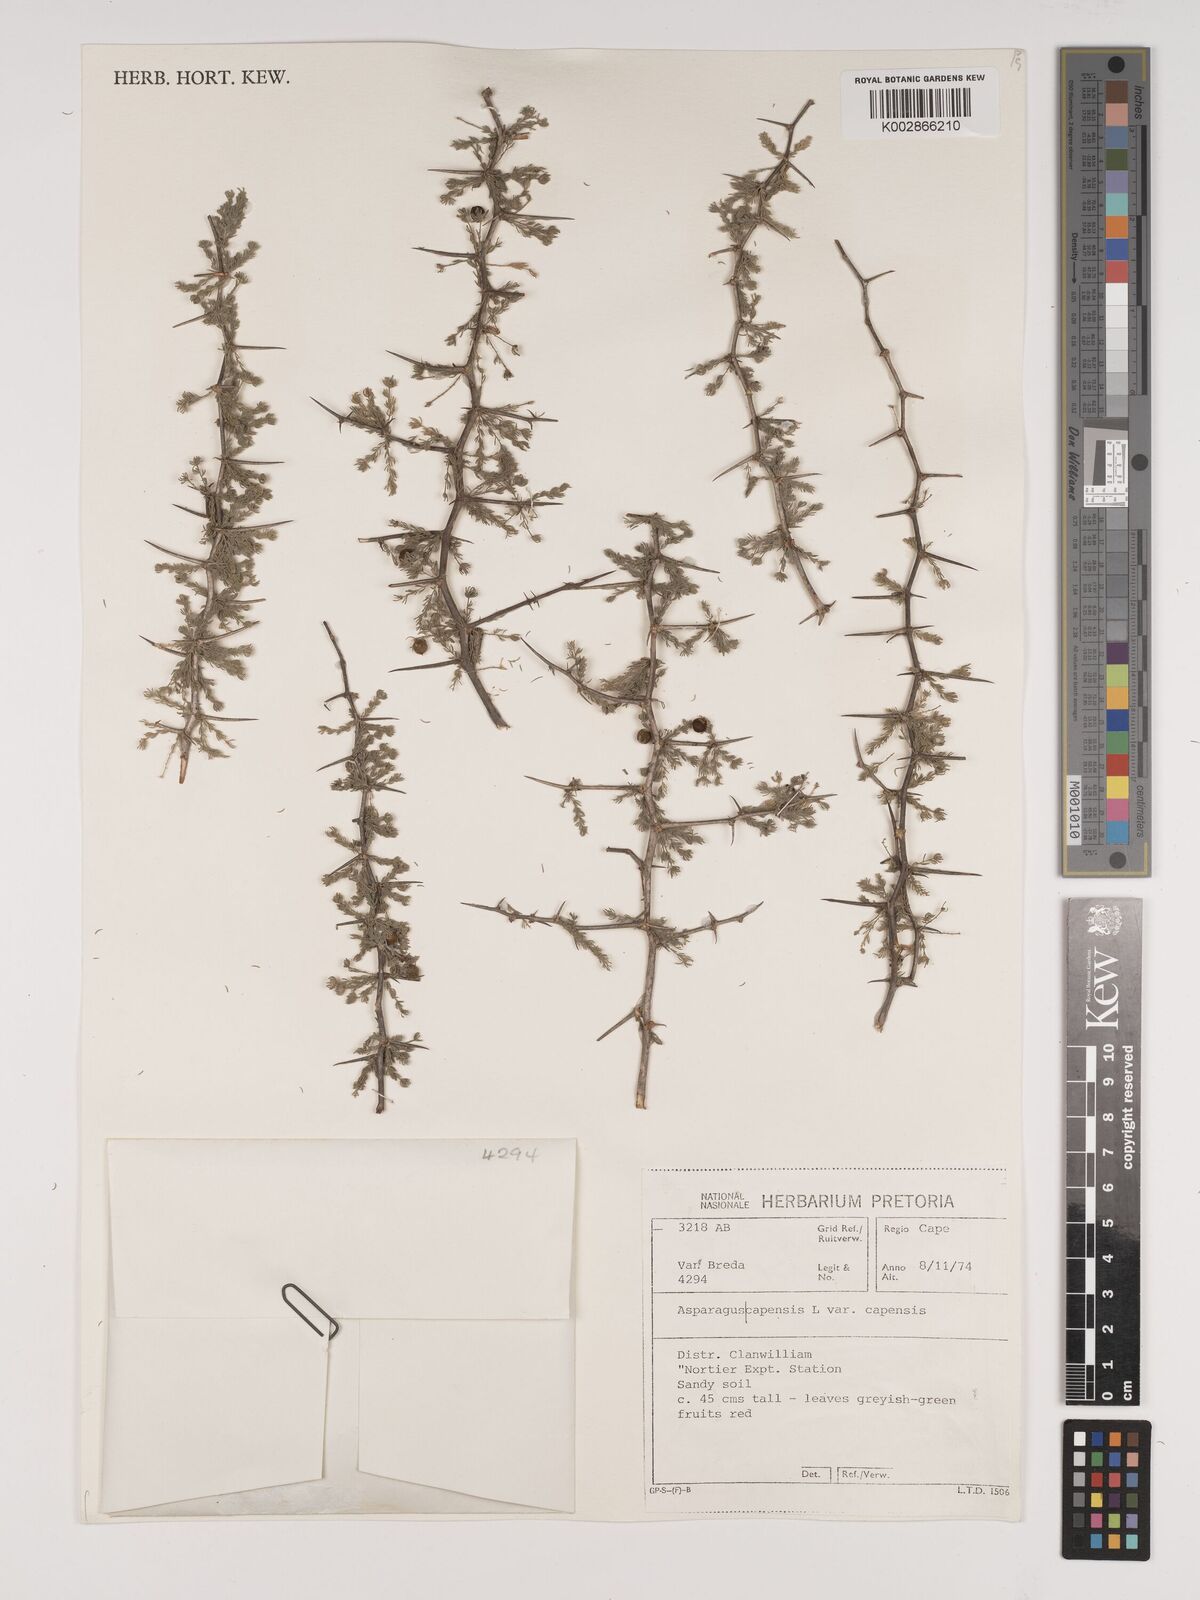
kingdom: Plantae
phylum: Tracheophyta
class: Liliopsida
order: Asparagales
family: Asparagaceae
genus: Asparagus
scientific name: Asparagus capensis
